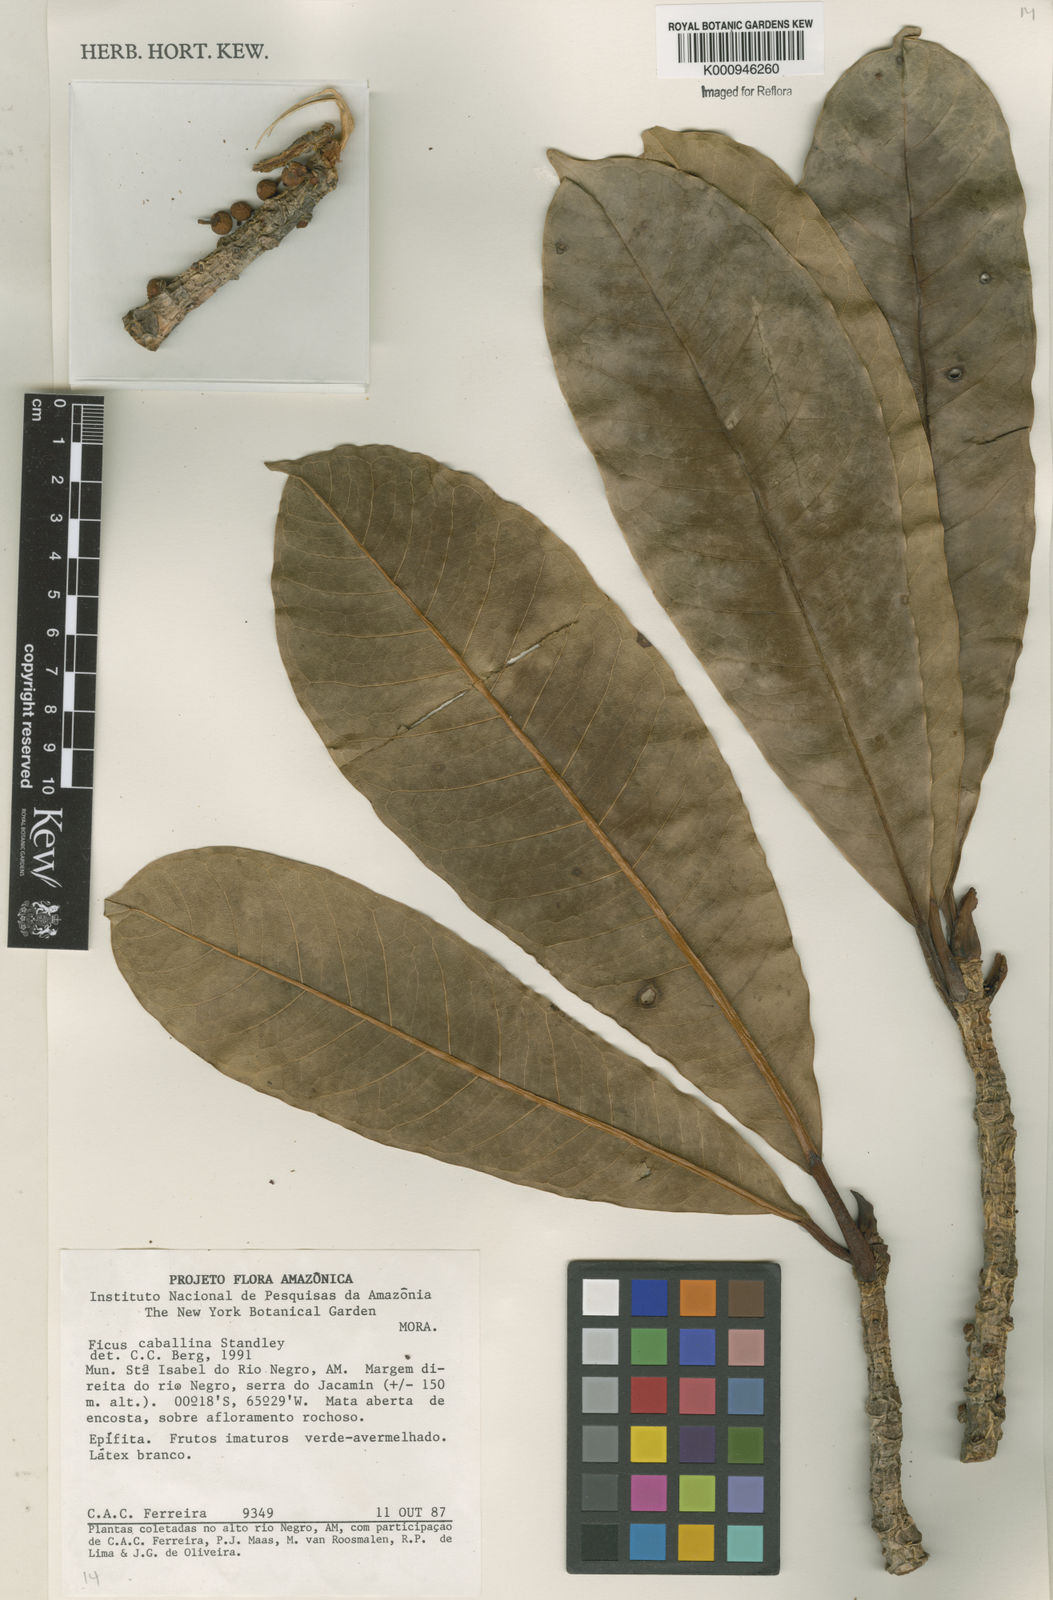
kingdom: Plantae
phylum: Tracheophyta
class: Magnoliopsida
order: Rosales
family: Moraceae
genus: Ficus
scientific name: Ficus caballina
